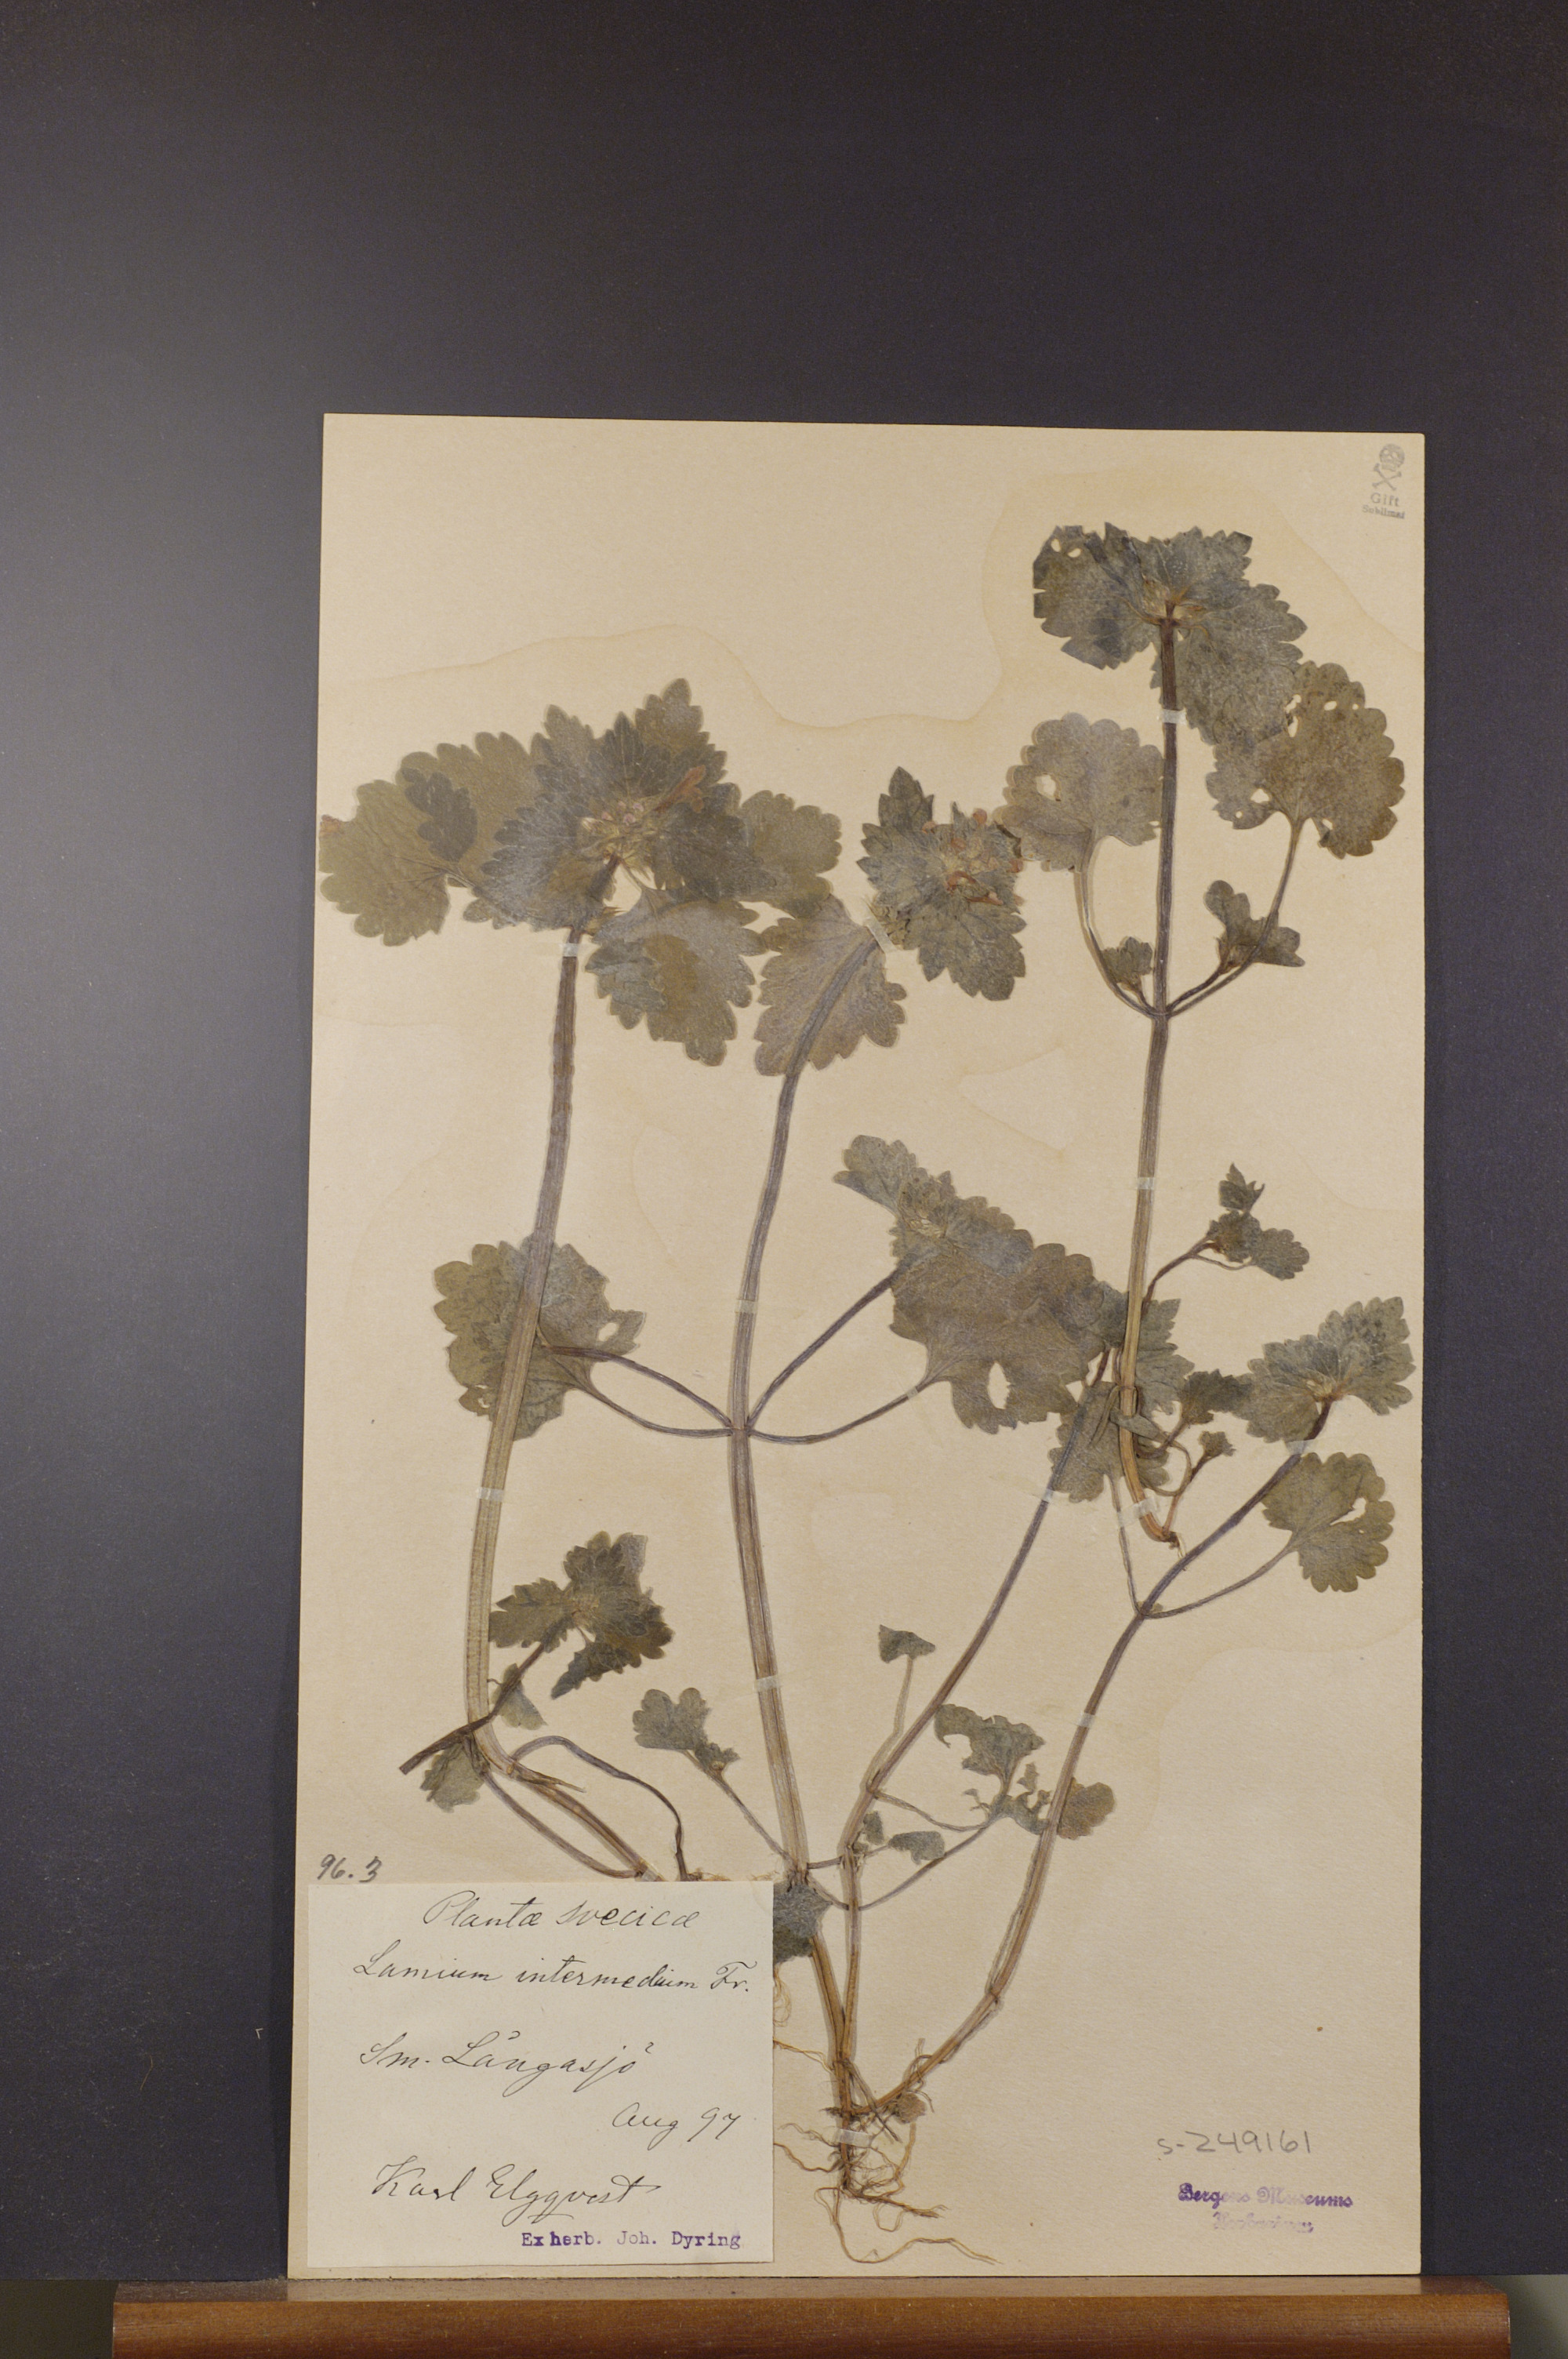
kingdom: Plantae
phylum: Tracheophyta
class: Magnoliopsida
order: Lamiales
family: Lamiaceae
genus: Lamium
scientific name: Lamium confertum
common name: Northern dead-nettle
